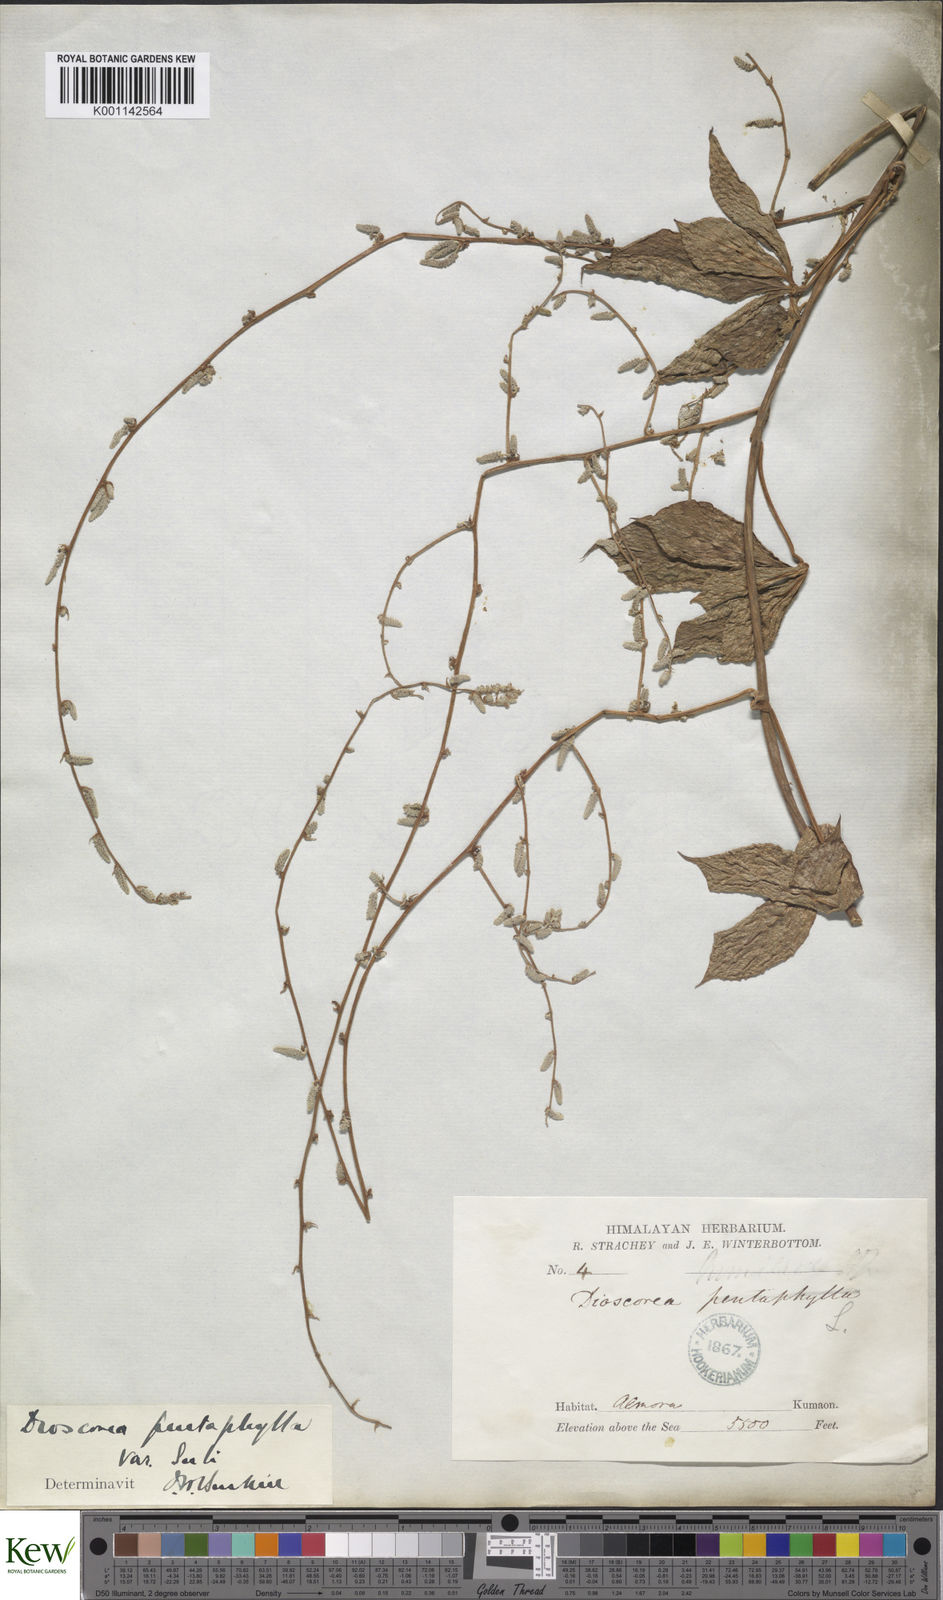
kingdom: Plantae
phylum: Tracheophyta
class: Liliopsida
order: Dioscoreales
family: Dioscoreaceae
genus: Dioscorea
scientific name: Dioscorea pentaphylla
